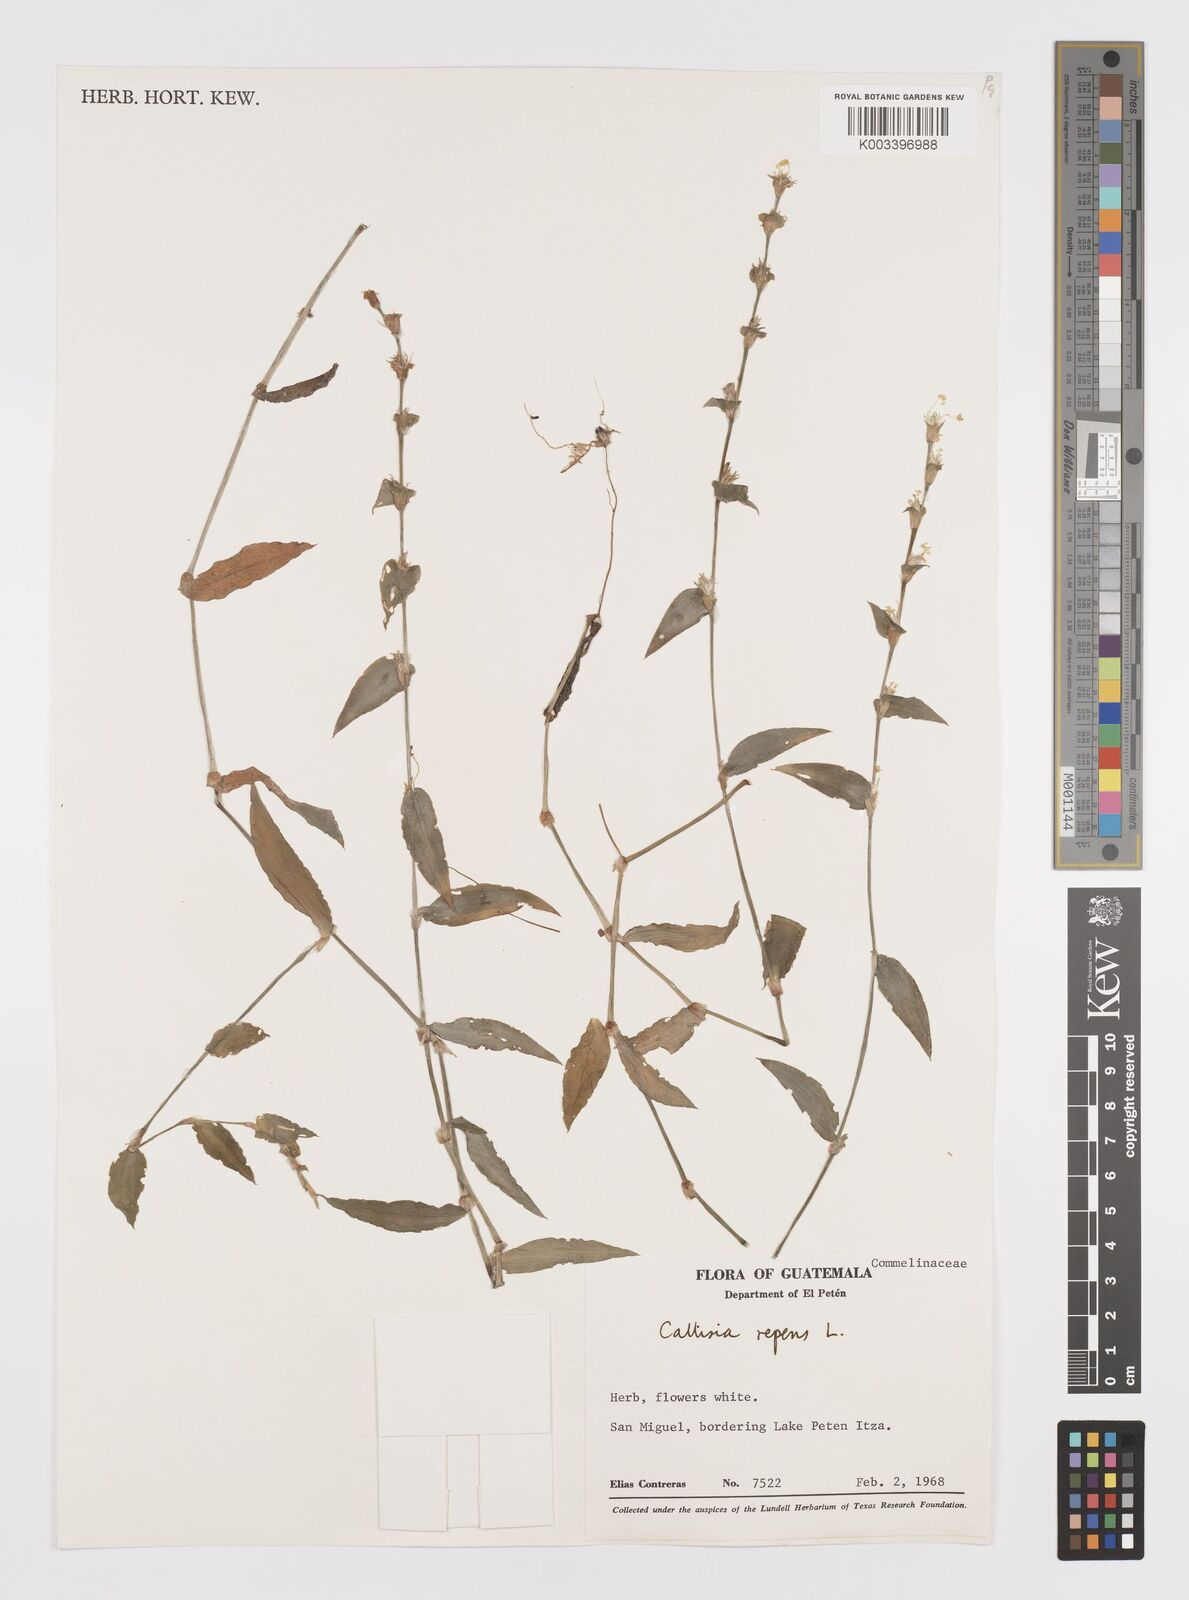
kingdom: Plantae
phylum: Tracheophyta
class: Liliopsida
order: Commelinales
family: Commelinaceae
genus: Callisia
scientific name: Callisia repens
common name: Creeping inchplant
